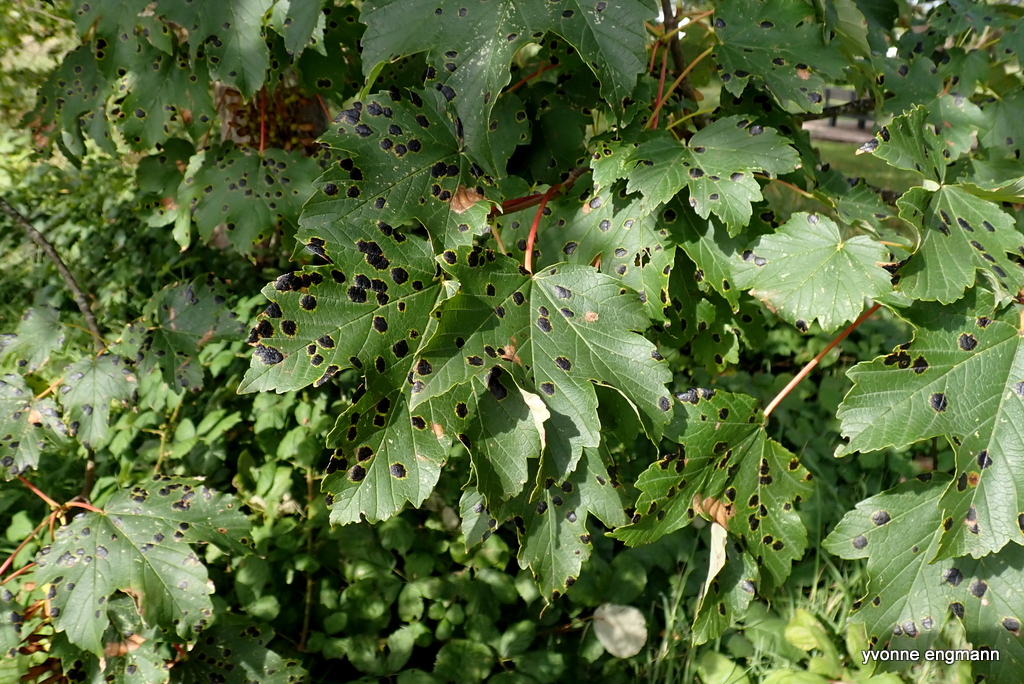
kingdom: Fungi
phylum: Ascomycota
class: Leotiomycetes
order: Rhytismatales
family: Rhytismataceae
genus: Rhytisma
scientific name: Rhytisma acerinum
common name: ahorn-rynkeplet
